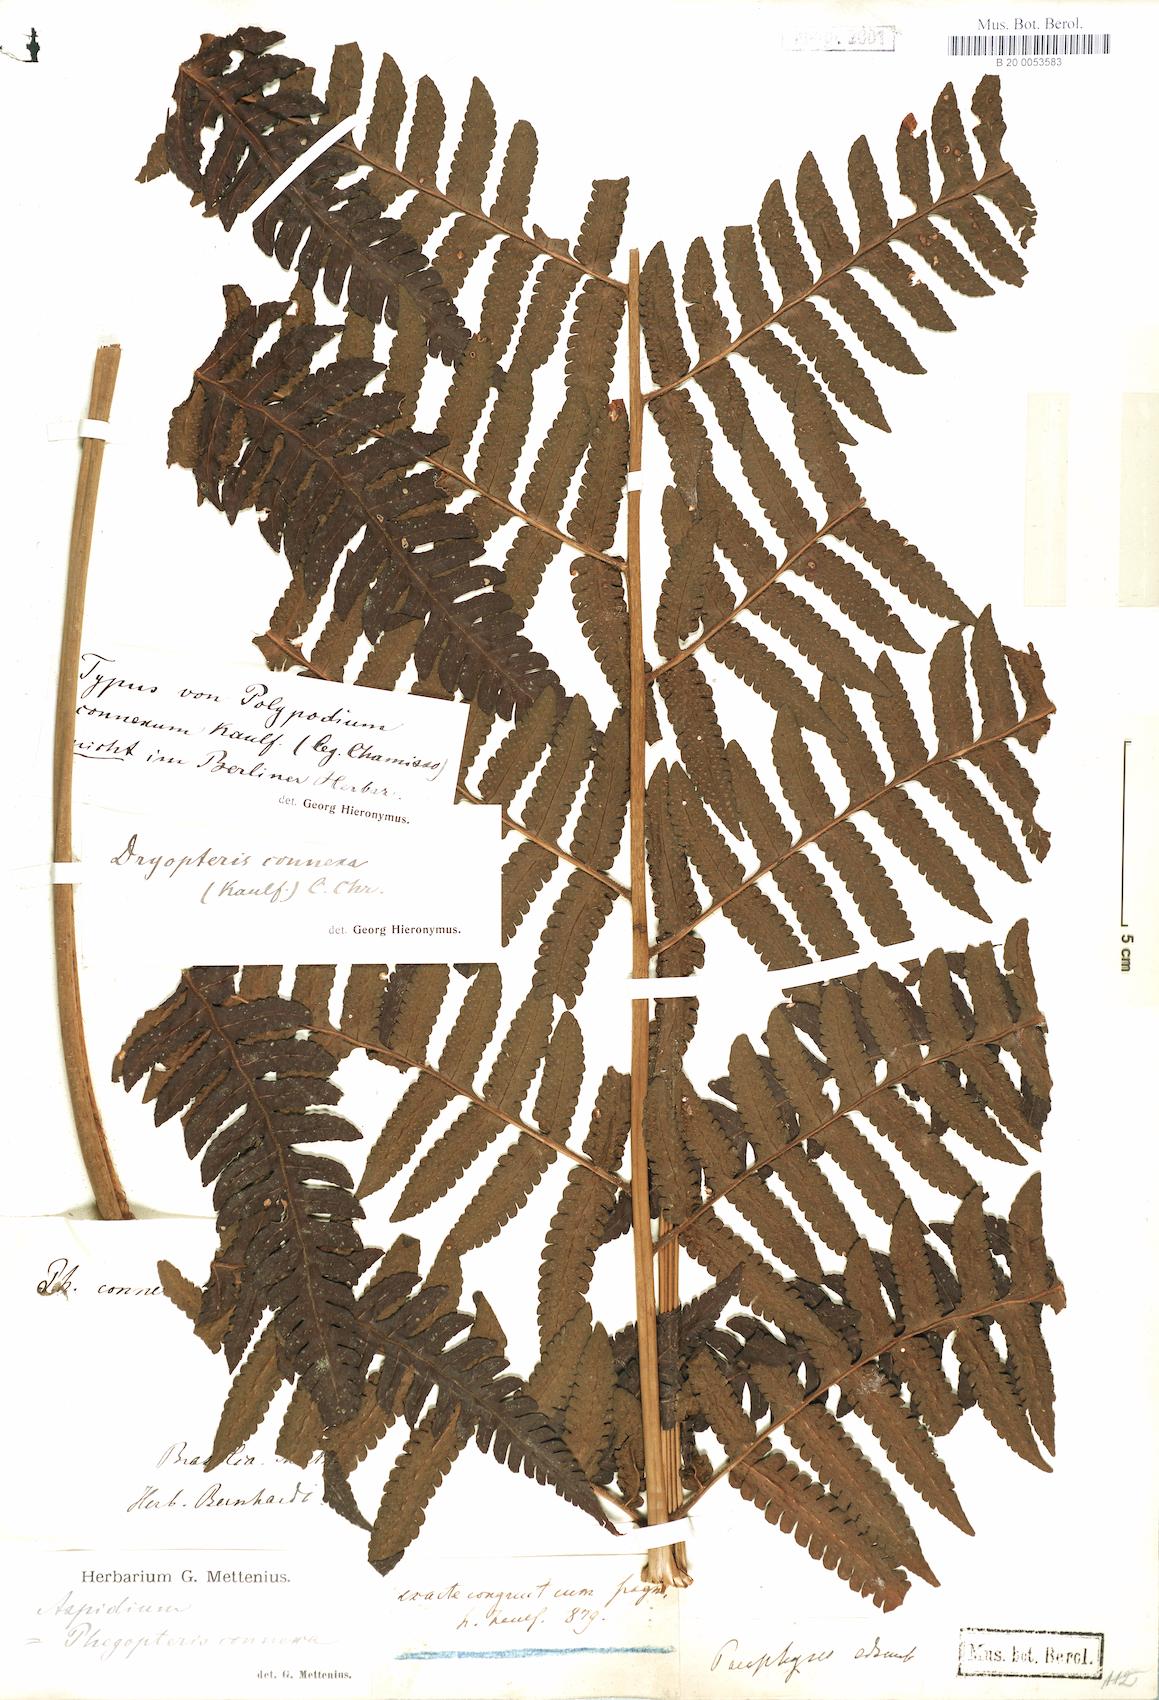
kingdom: Plantae
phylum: Tracheophyta
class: Polypodiopsida
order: Polypodiales
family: Dryopteridaceae
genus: Megalastrum
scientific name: Megalastrum connexum
